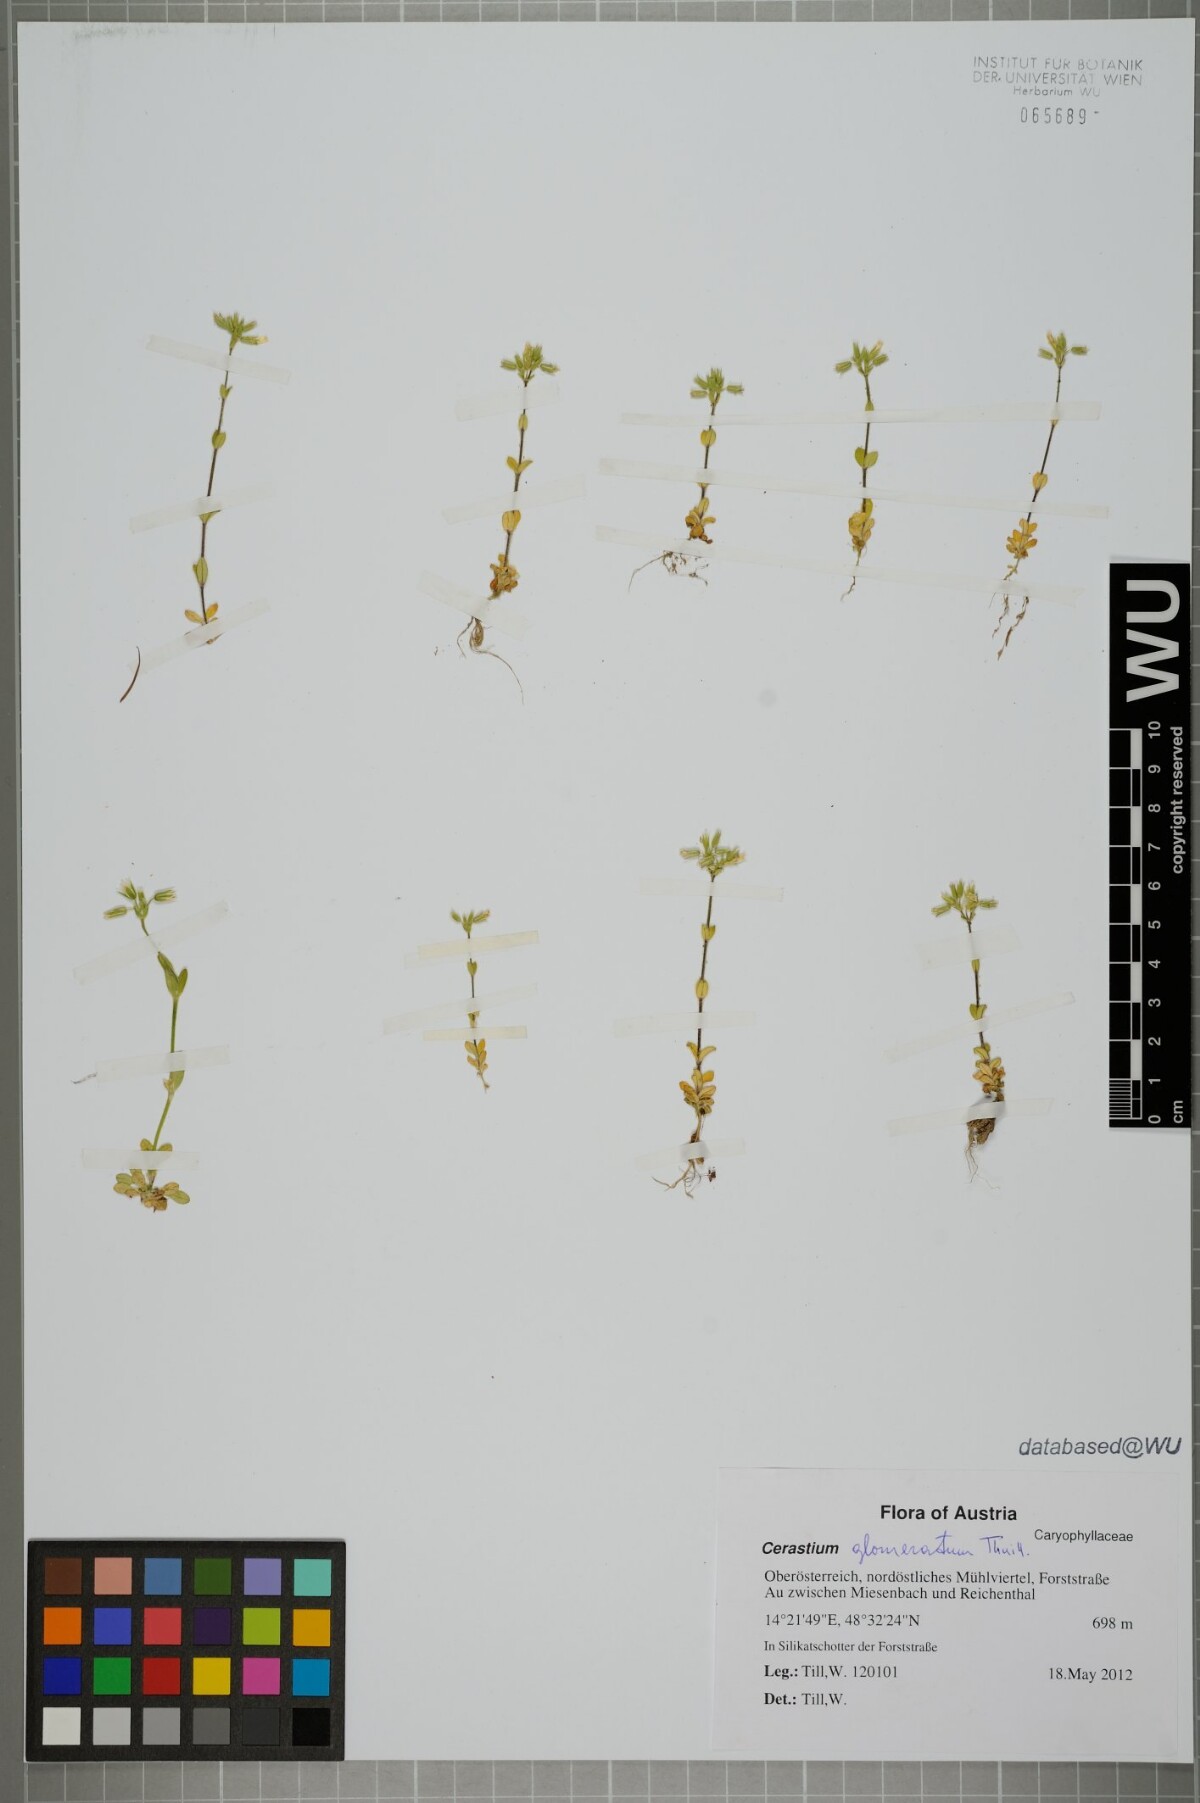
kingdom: Plantae
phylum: Tracheophyta
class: Magnoliopsida
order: Caryophyllales
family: Caryophyllaceae
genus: Cerastium
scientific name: Cerastium glomeratum
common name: Sticky chickweed
